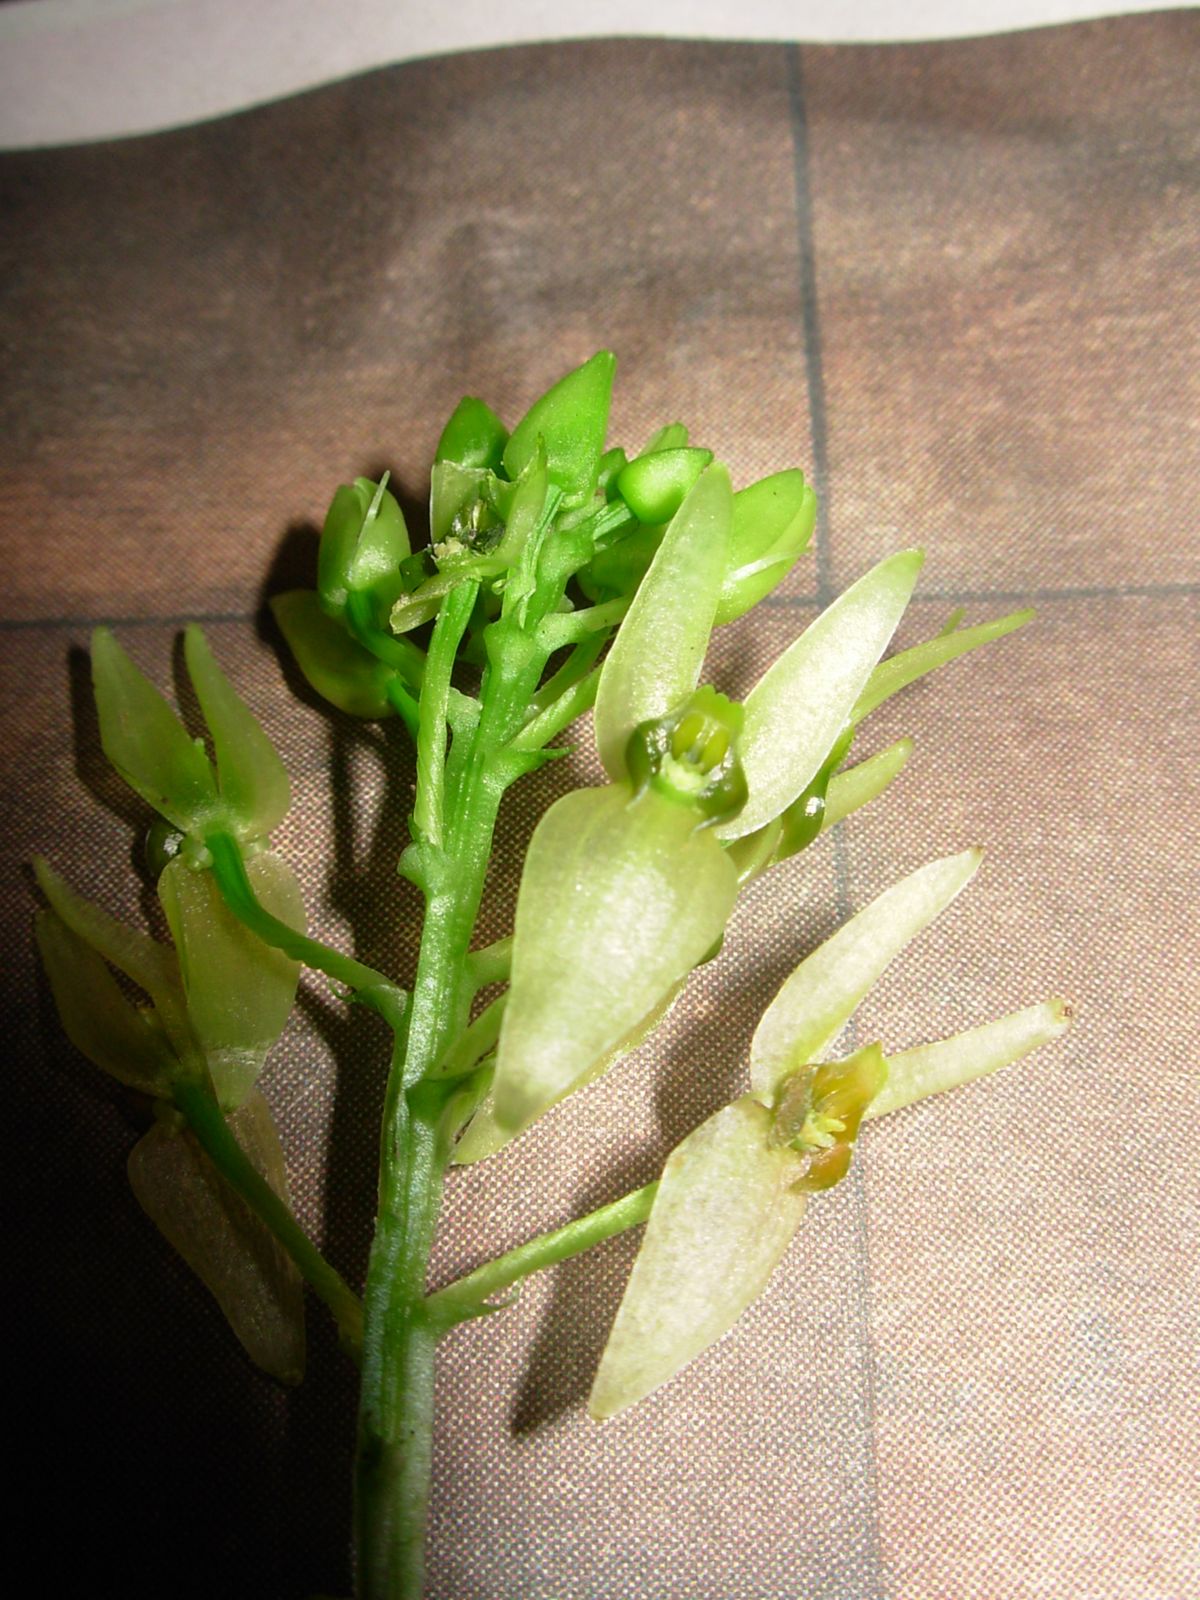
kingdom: Plantae
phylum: Tracheophyta
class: Liliopsida
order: Asparagales
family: Orchidaceae
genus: Malaxis
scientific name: Malaxis lepanthiflora
